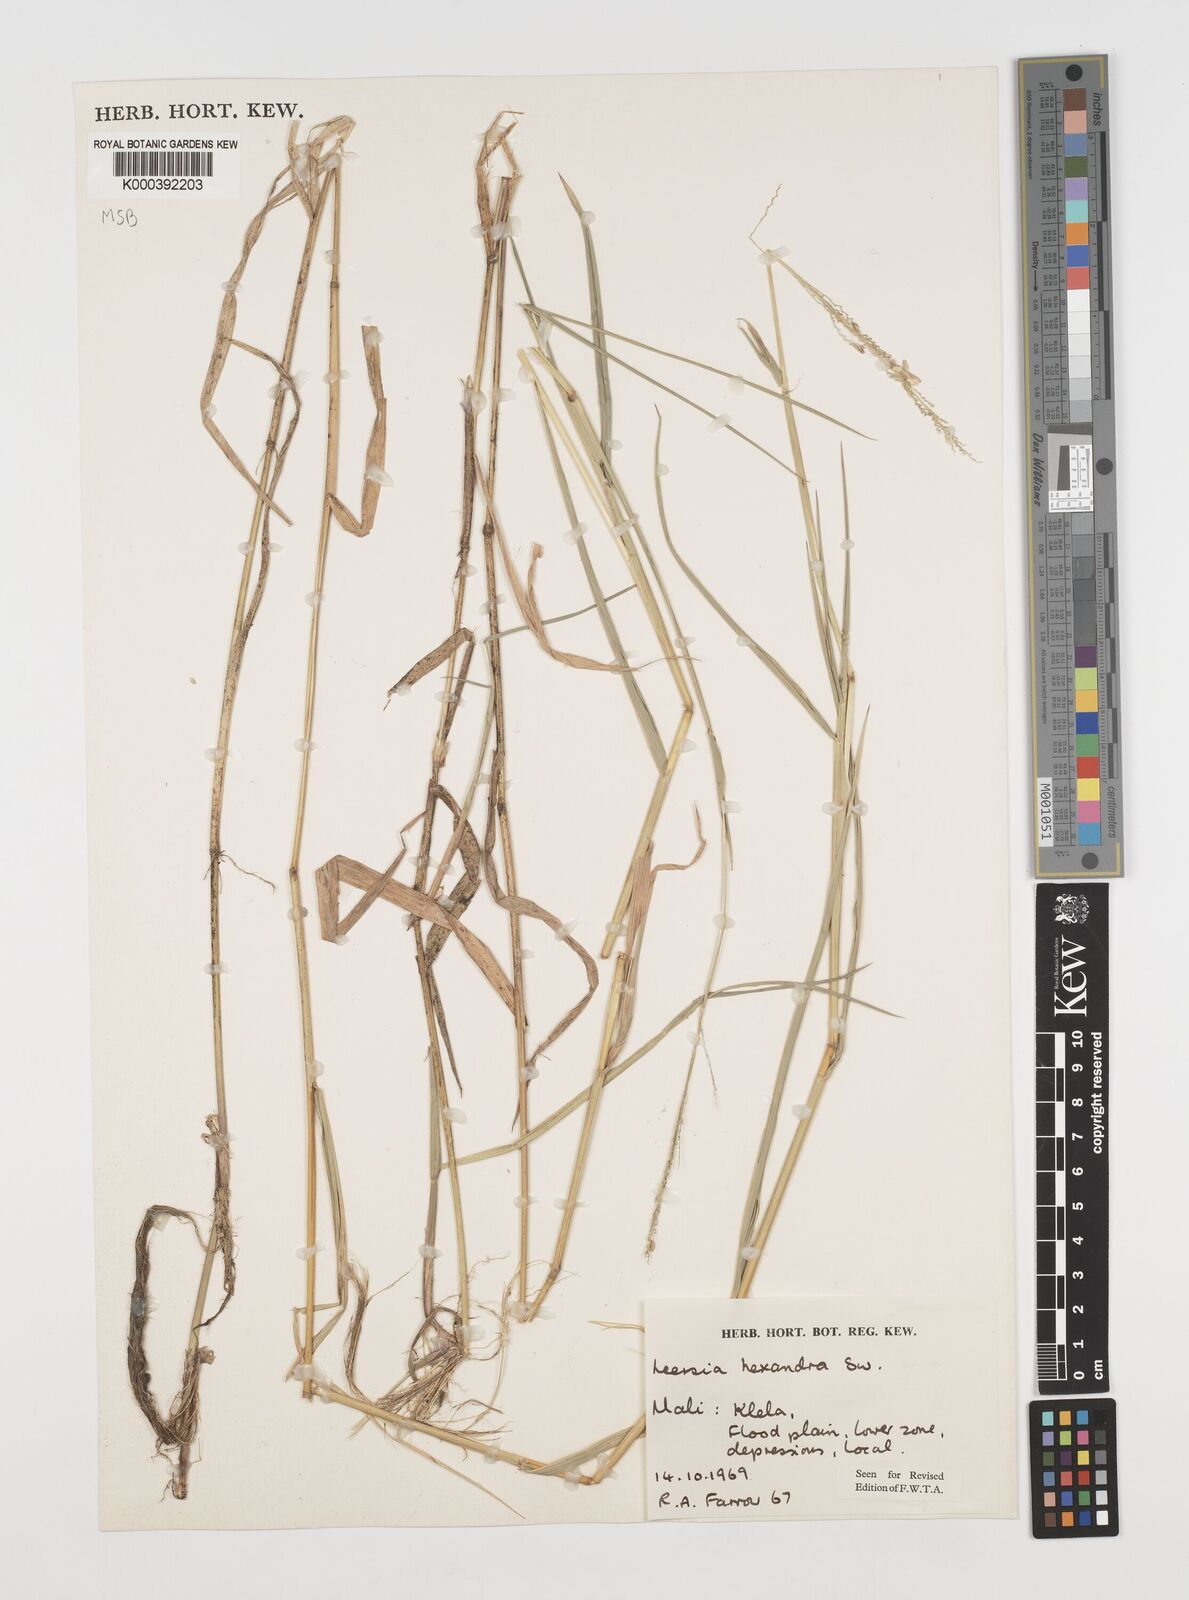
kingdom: Plantae
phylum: Tracheophyta
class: Liliopsida
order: Poales
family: Poaceae
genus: Leersia
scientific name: Leersia hexandra
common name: Southern cut grass
